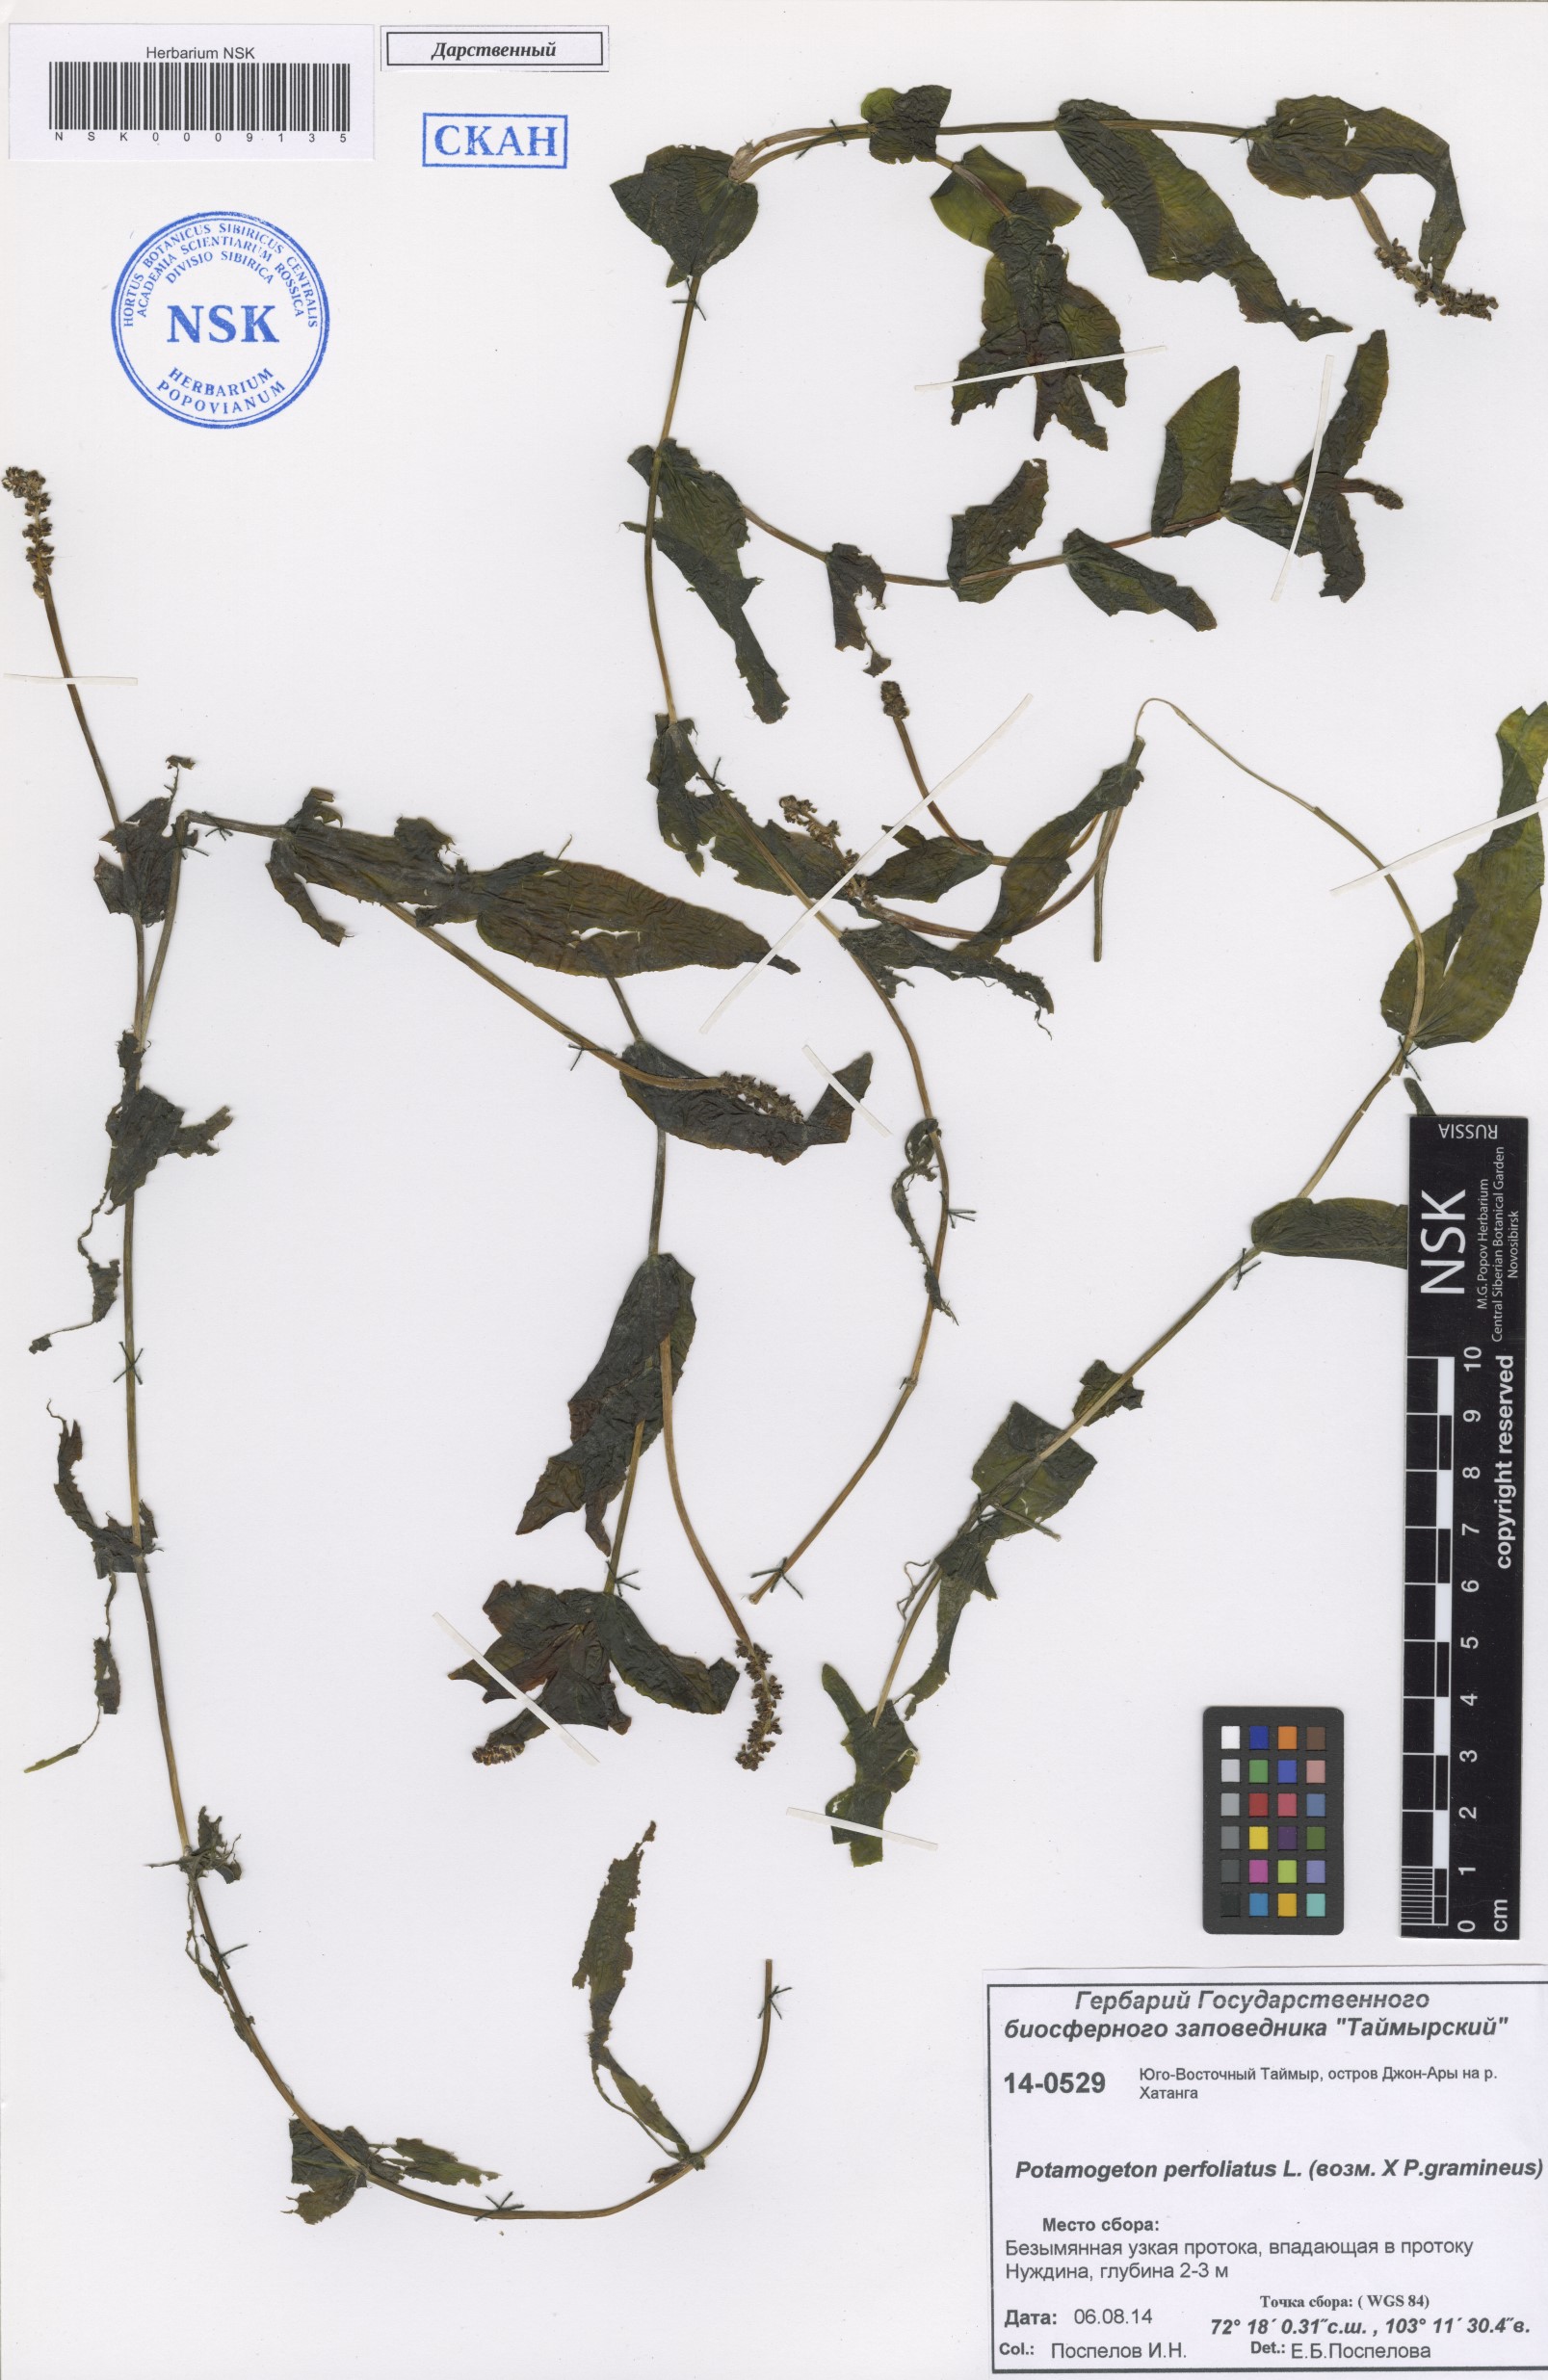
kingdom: Plantae
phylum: Tracheophyta
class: Liliopsida
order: Alismatales
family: Potamogetonaceae
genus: Potamogeton
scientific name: Potamogeton perfoliatus
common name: Perfoliate pondweed
